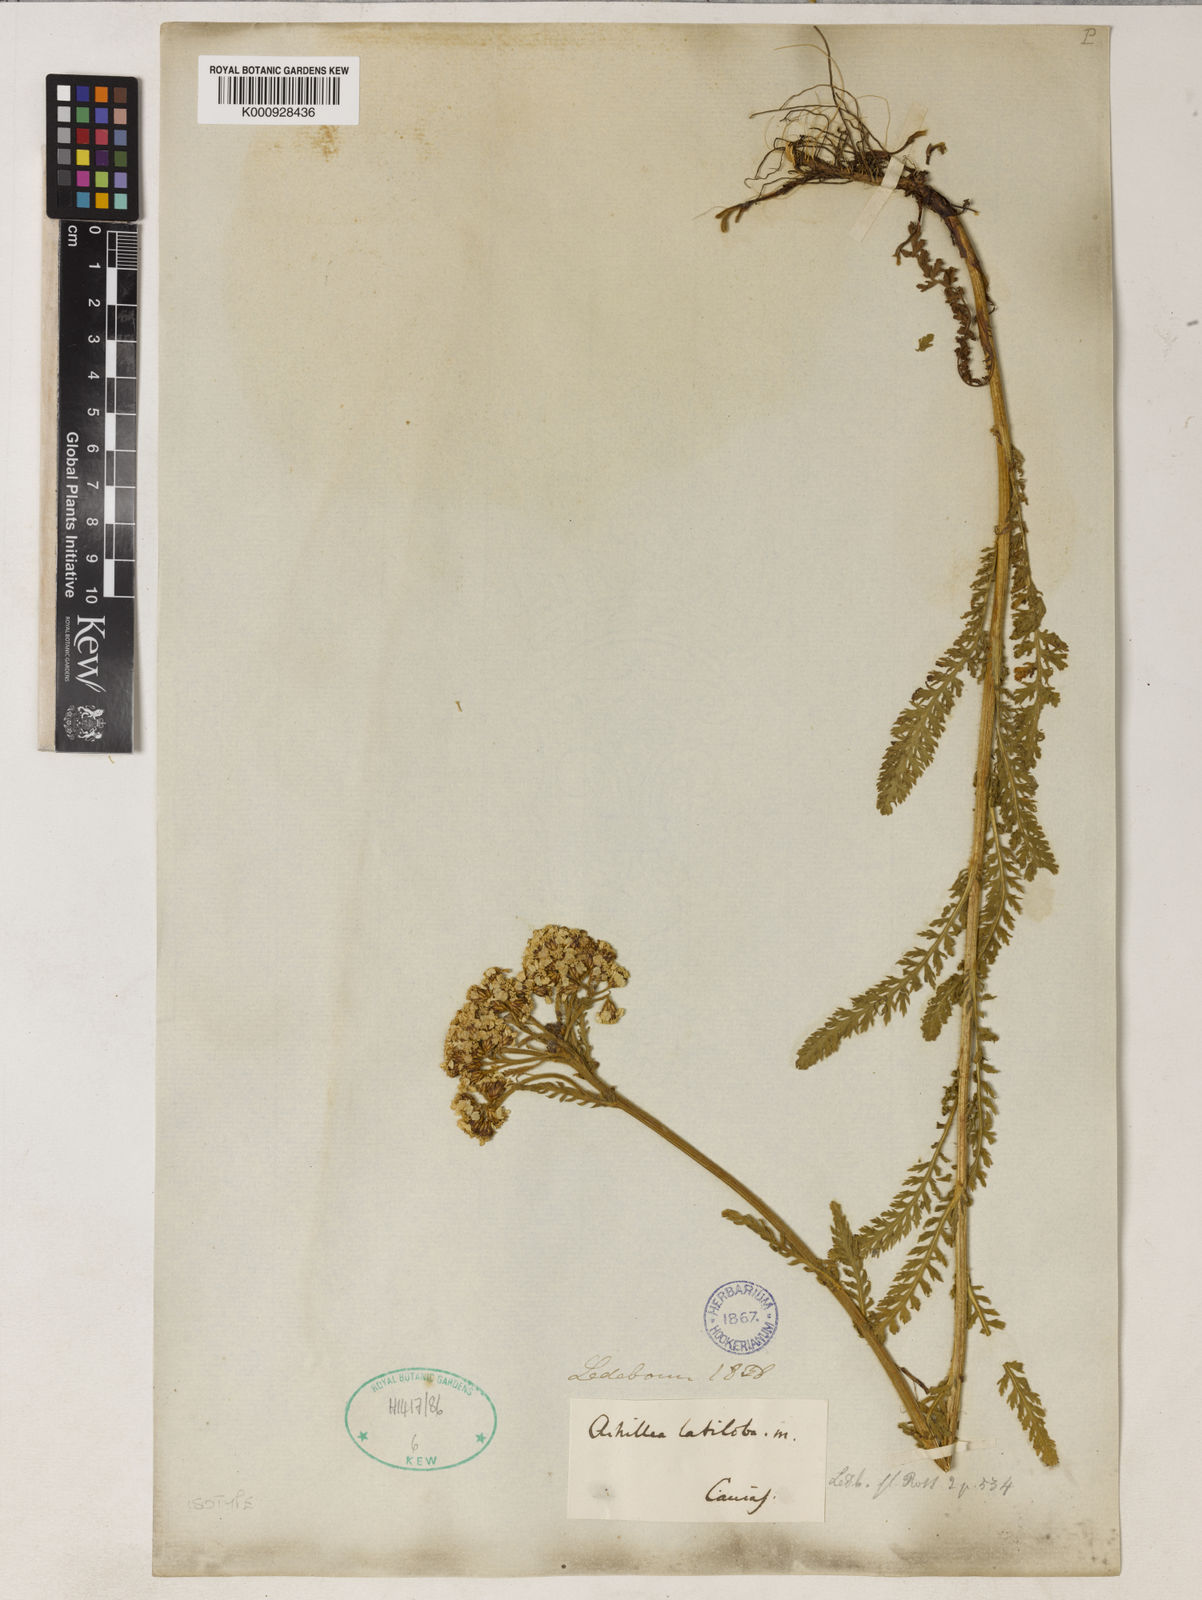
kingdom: Plantae
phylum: Tracheophyta
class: Magnoliopsida
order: Asterales
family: Asteraceae
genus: Achillea
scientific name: Achillea latiloba
